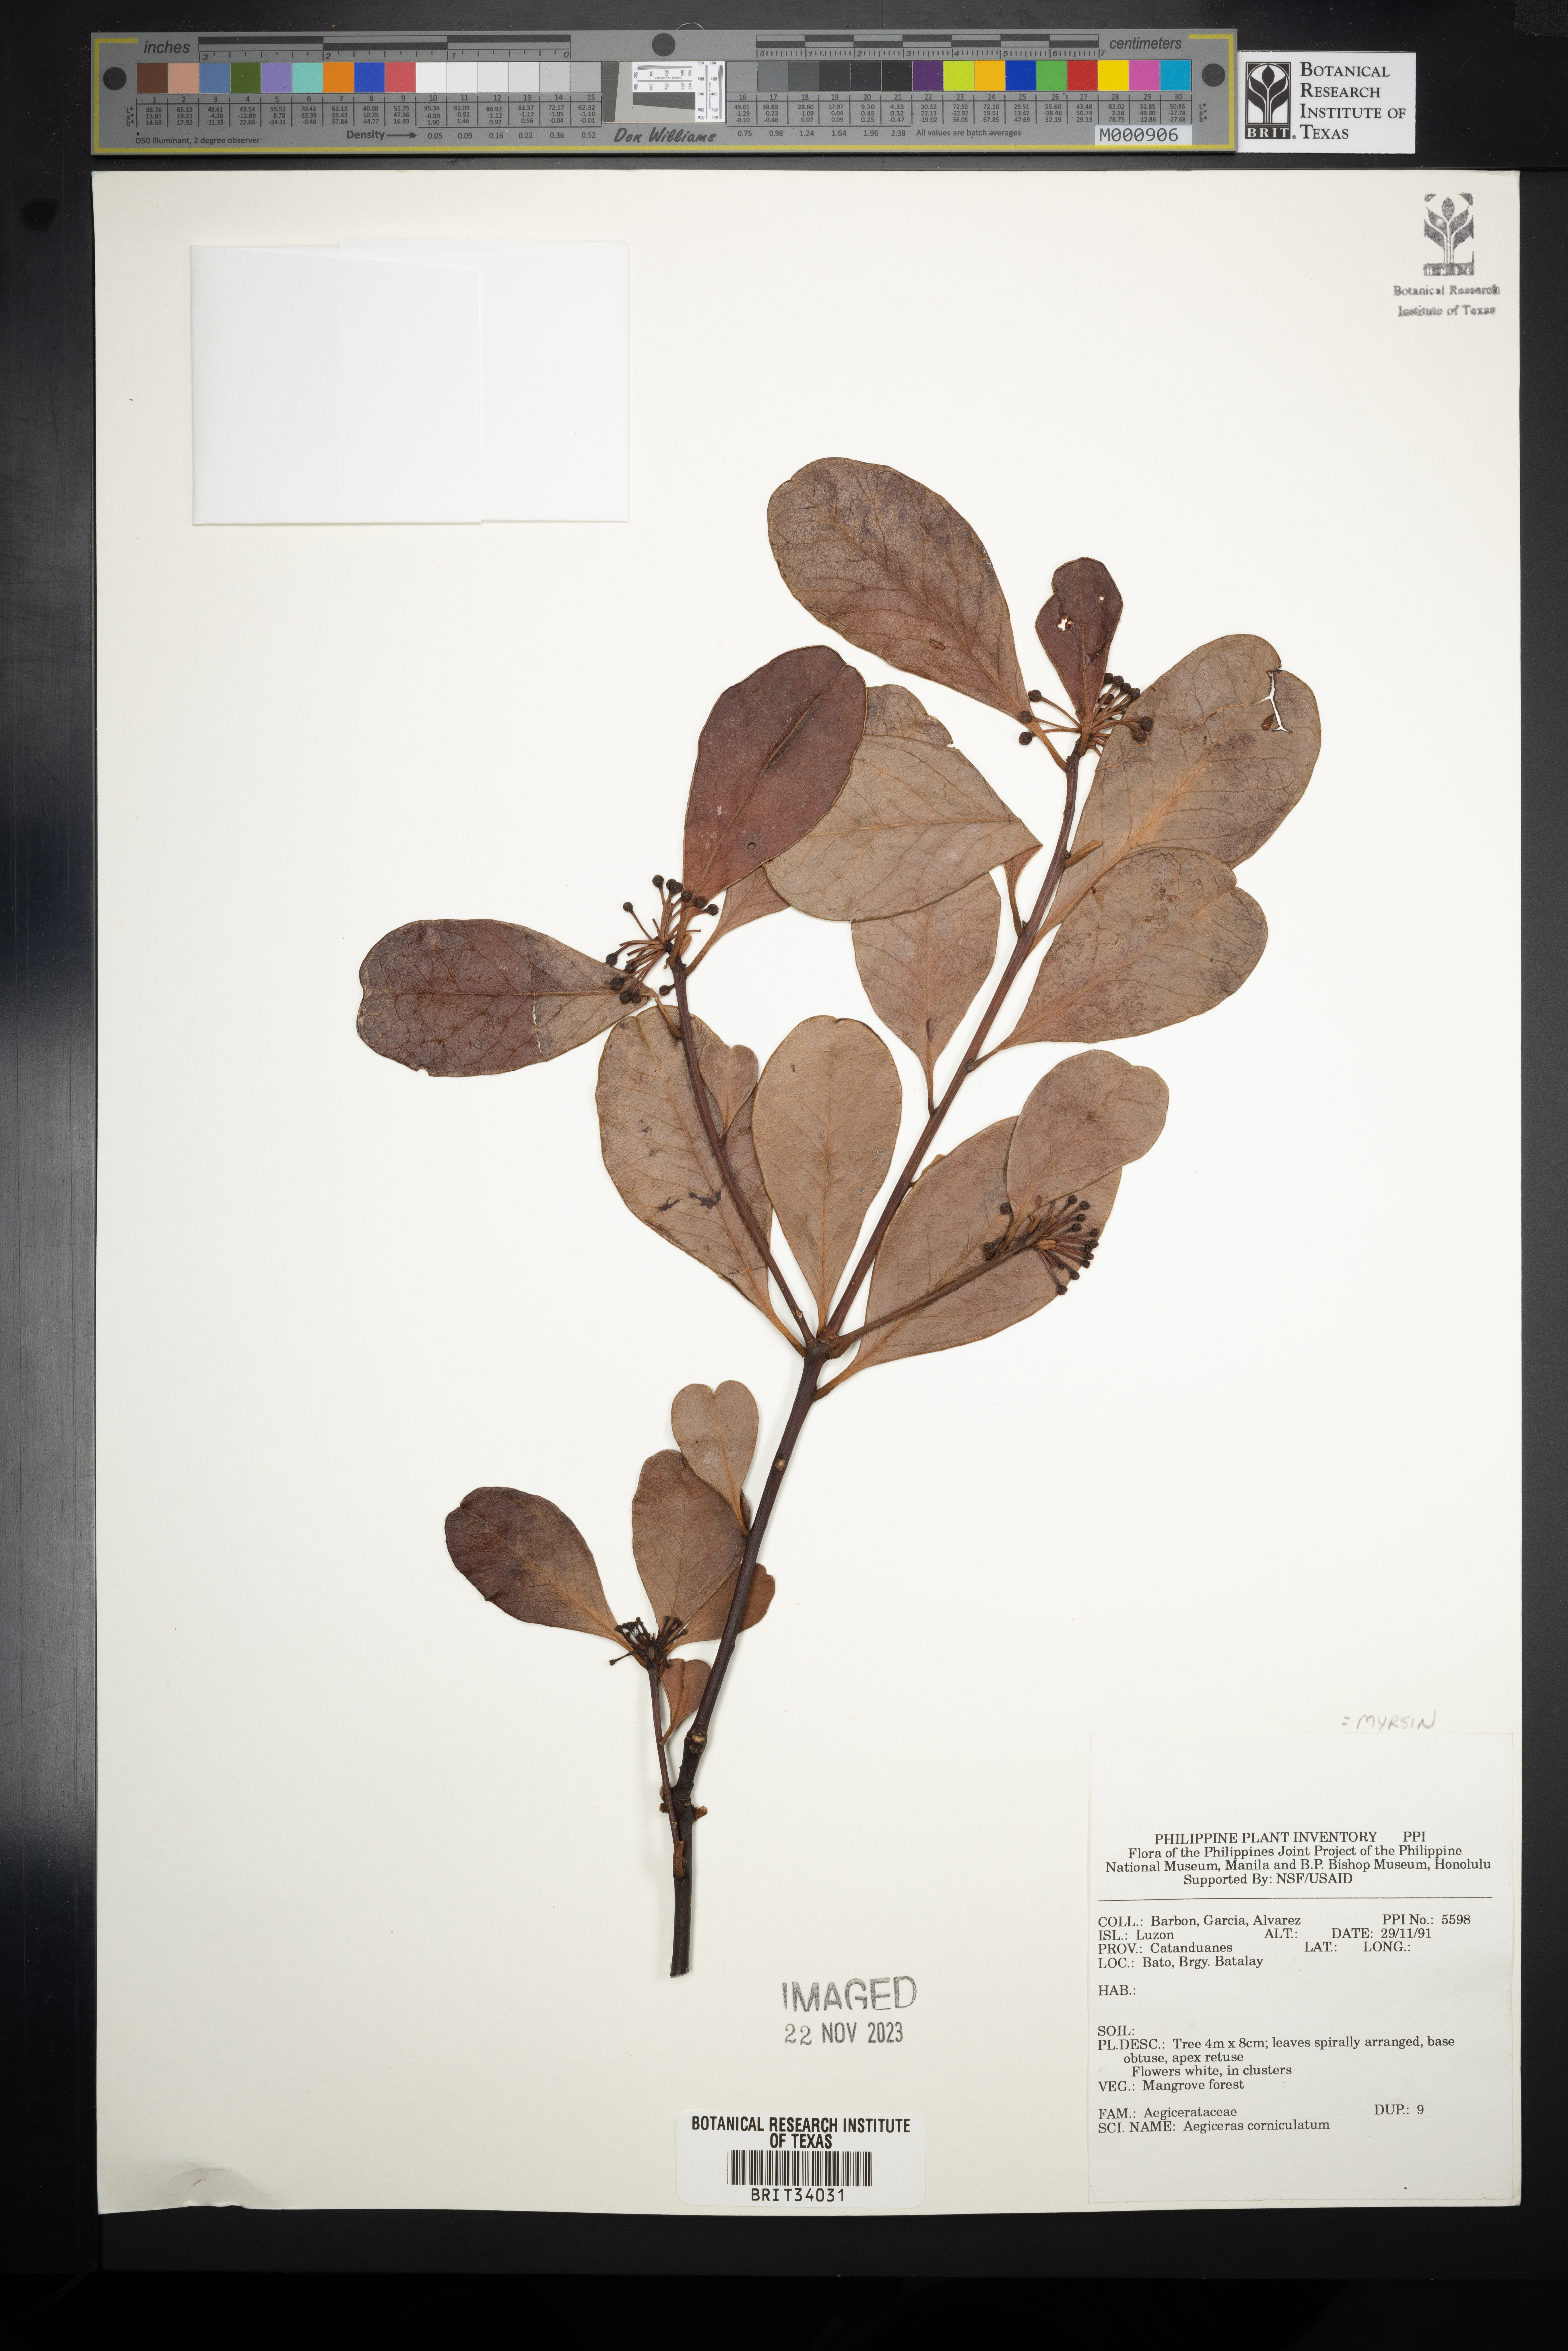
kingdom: Plantae
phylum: Tracheophyta
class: Magnoliopsida
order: Ericales
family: Primulaceae
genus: Aegiceras
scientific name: Aegiceras corniculatum
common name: River mangrove
